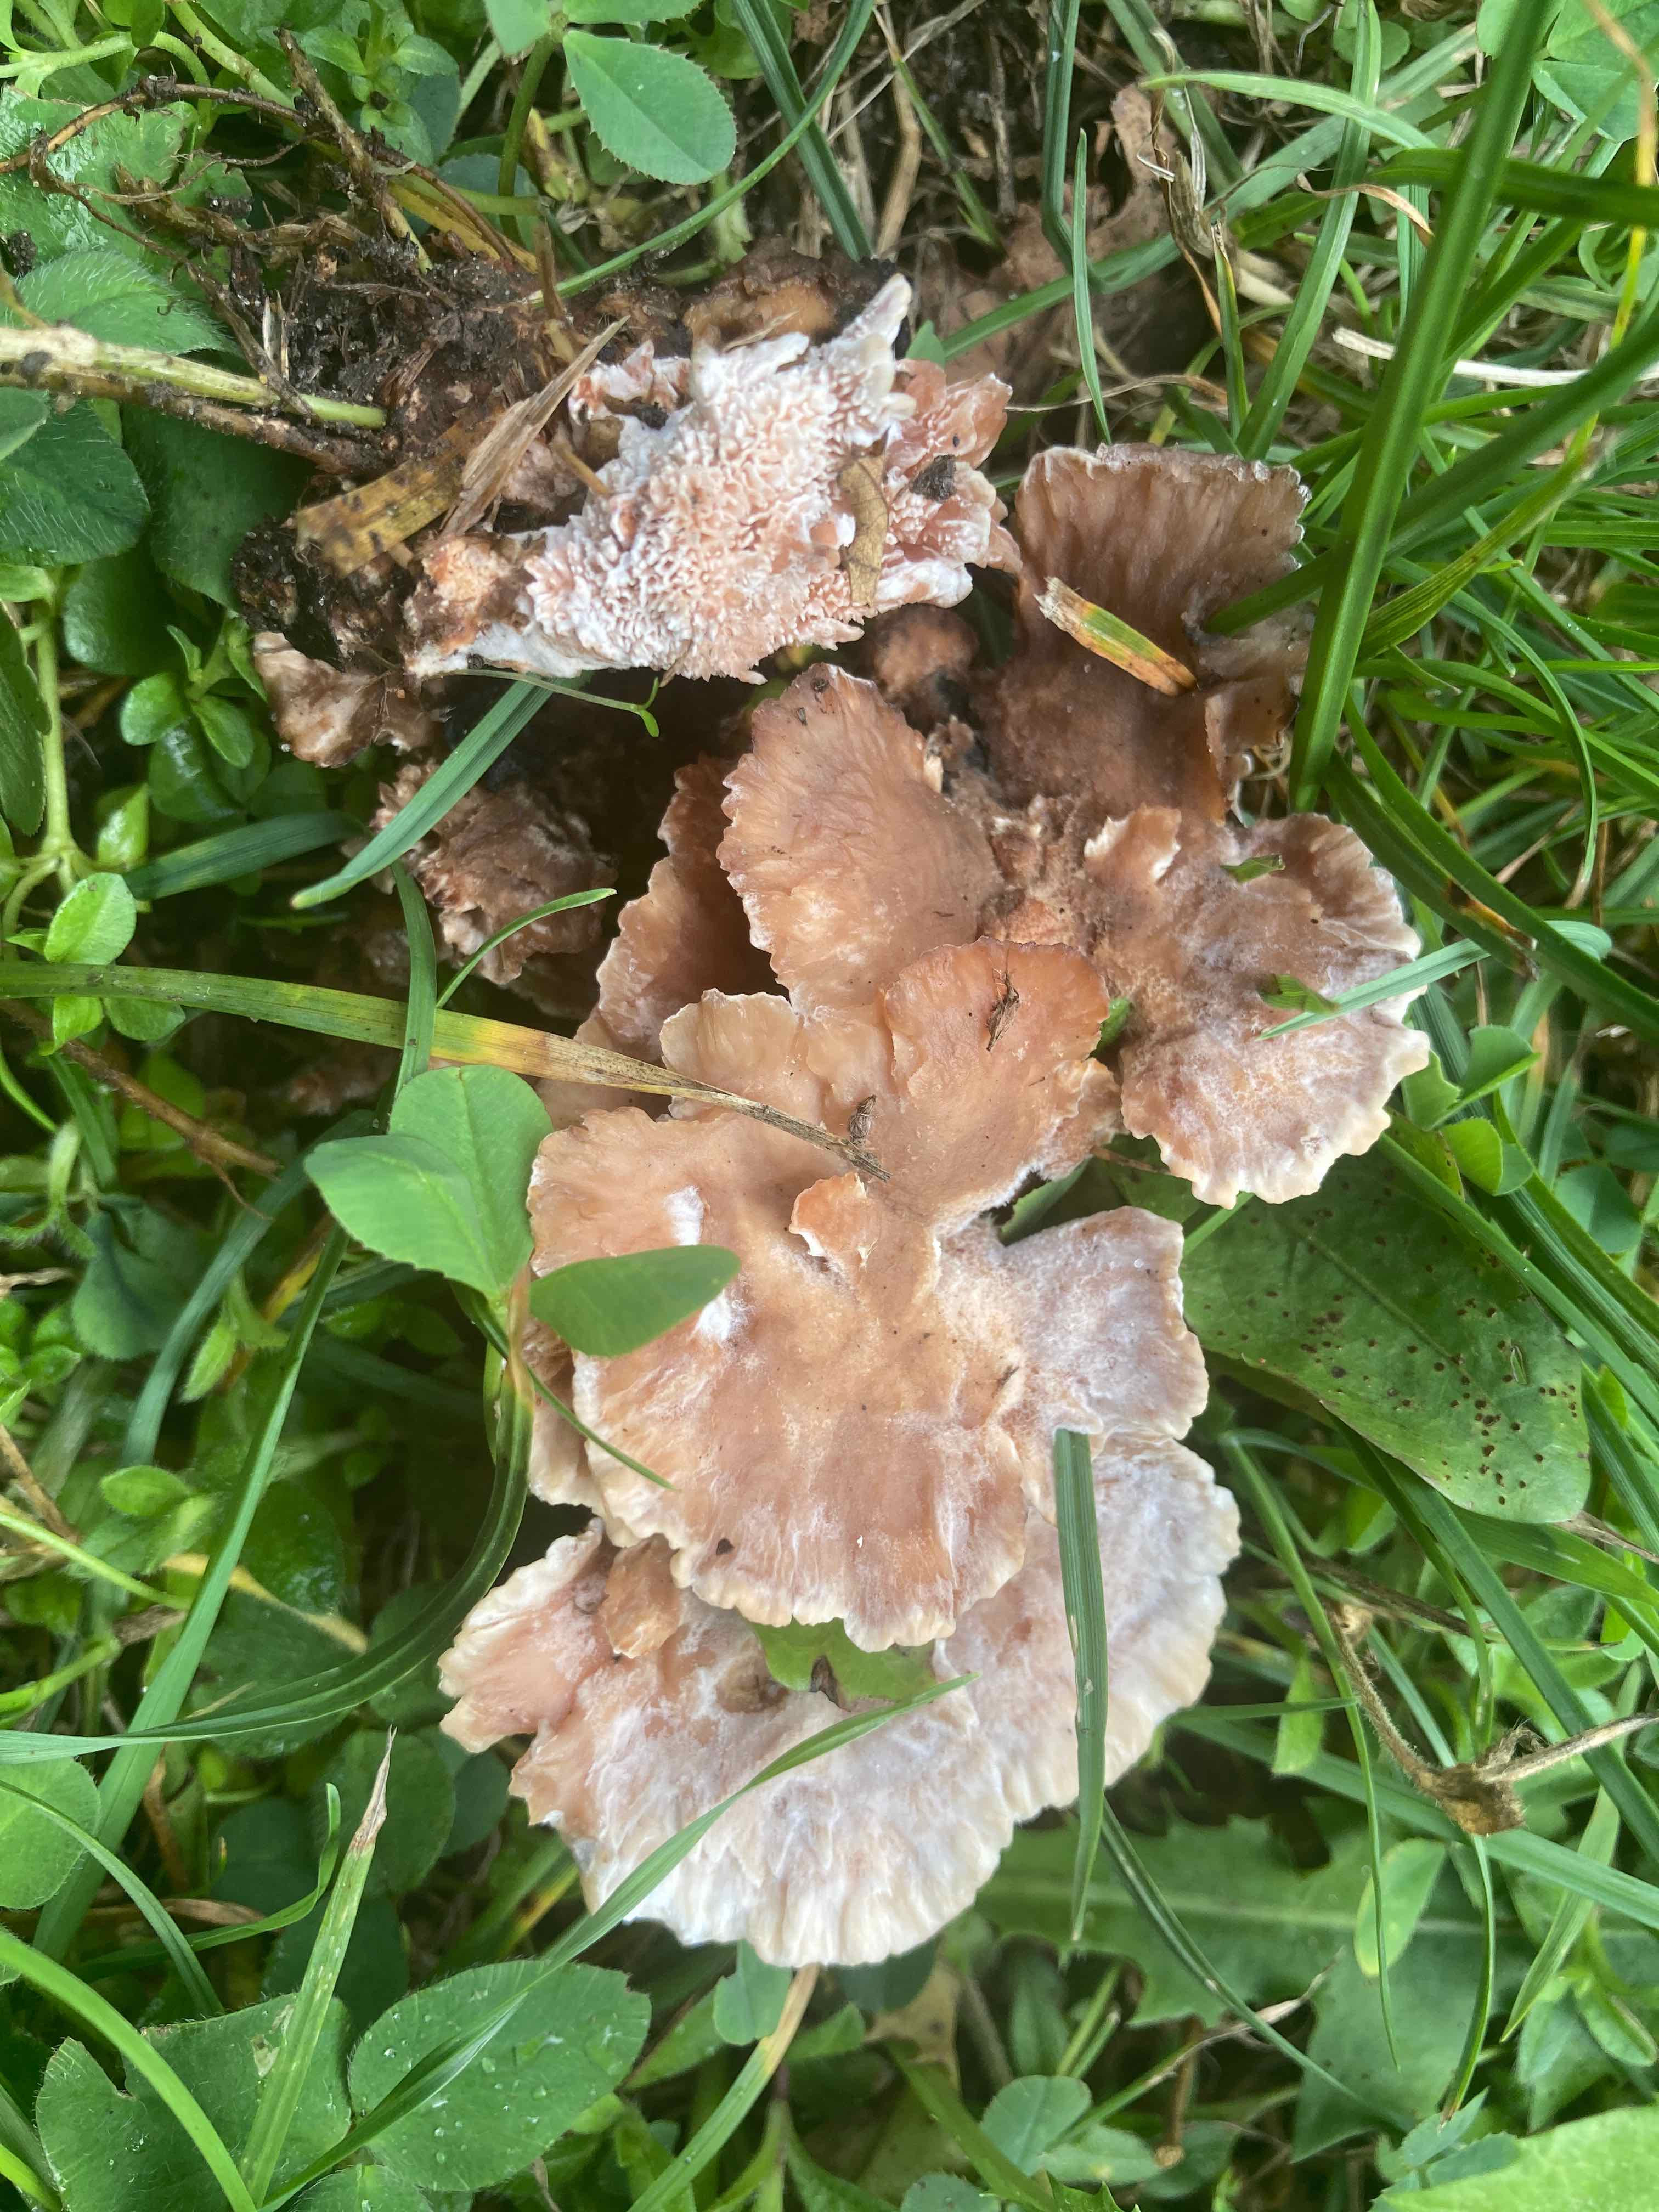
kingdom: Fungi
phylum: Basidiomycota
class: Agaricomycetes
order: Polyporales
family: Podoscyphaceae
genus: Abortiporus
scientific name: Abortiporus biennis
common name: rødmende pjalteporesvamp
